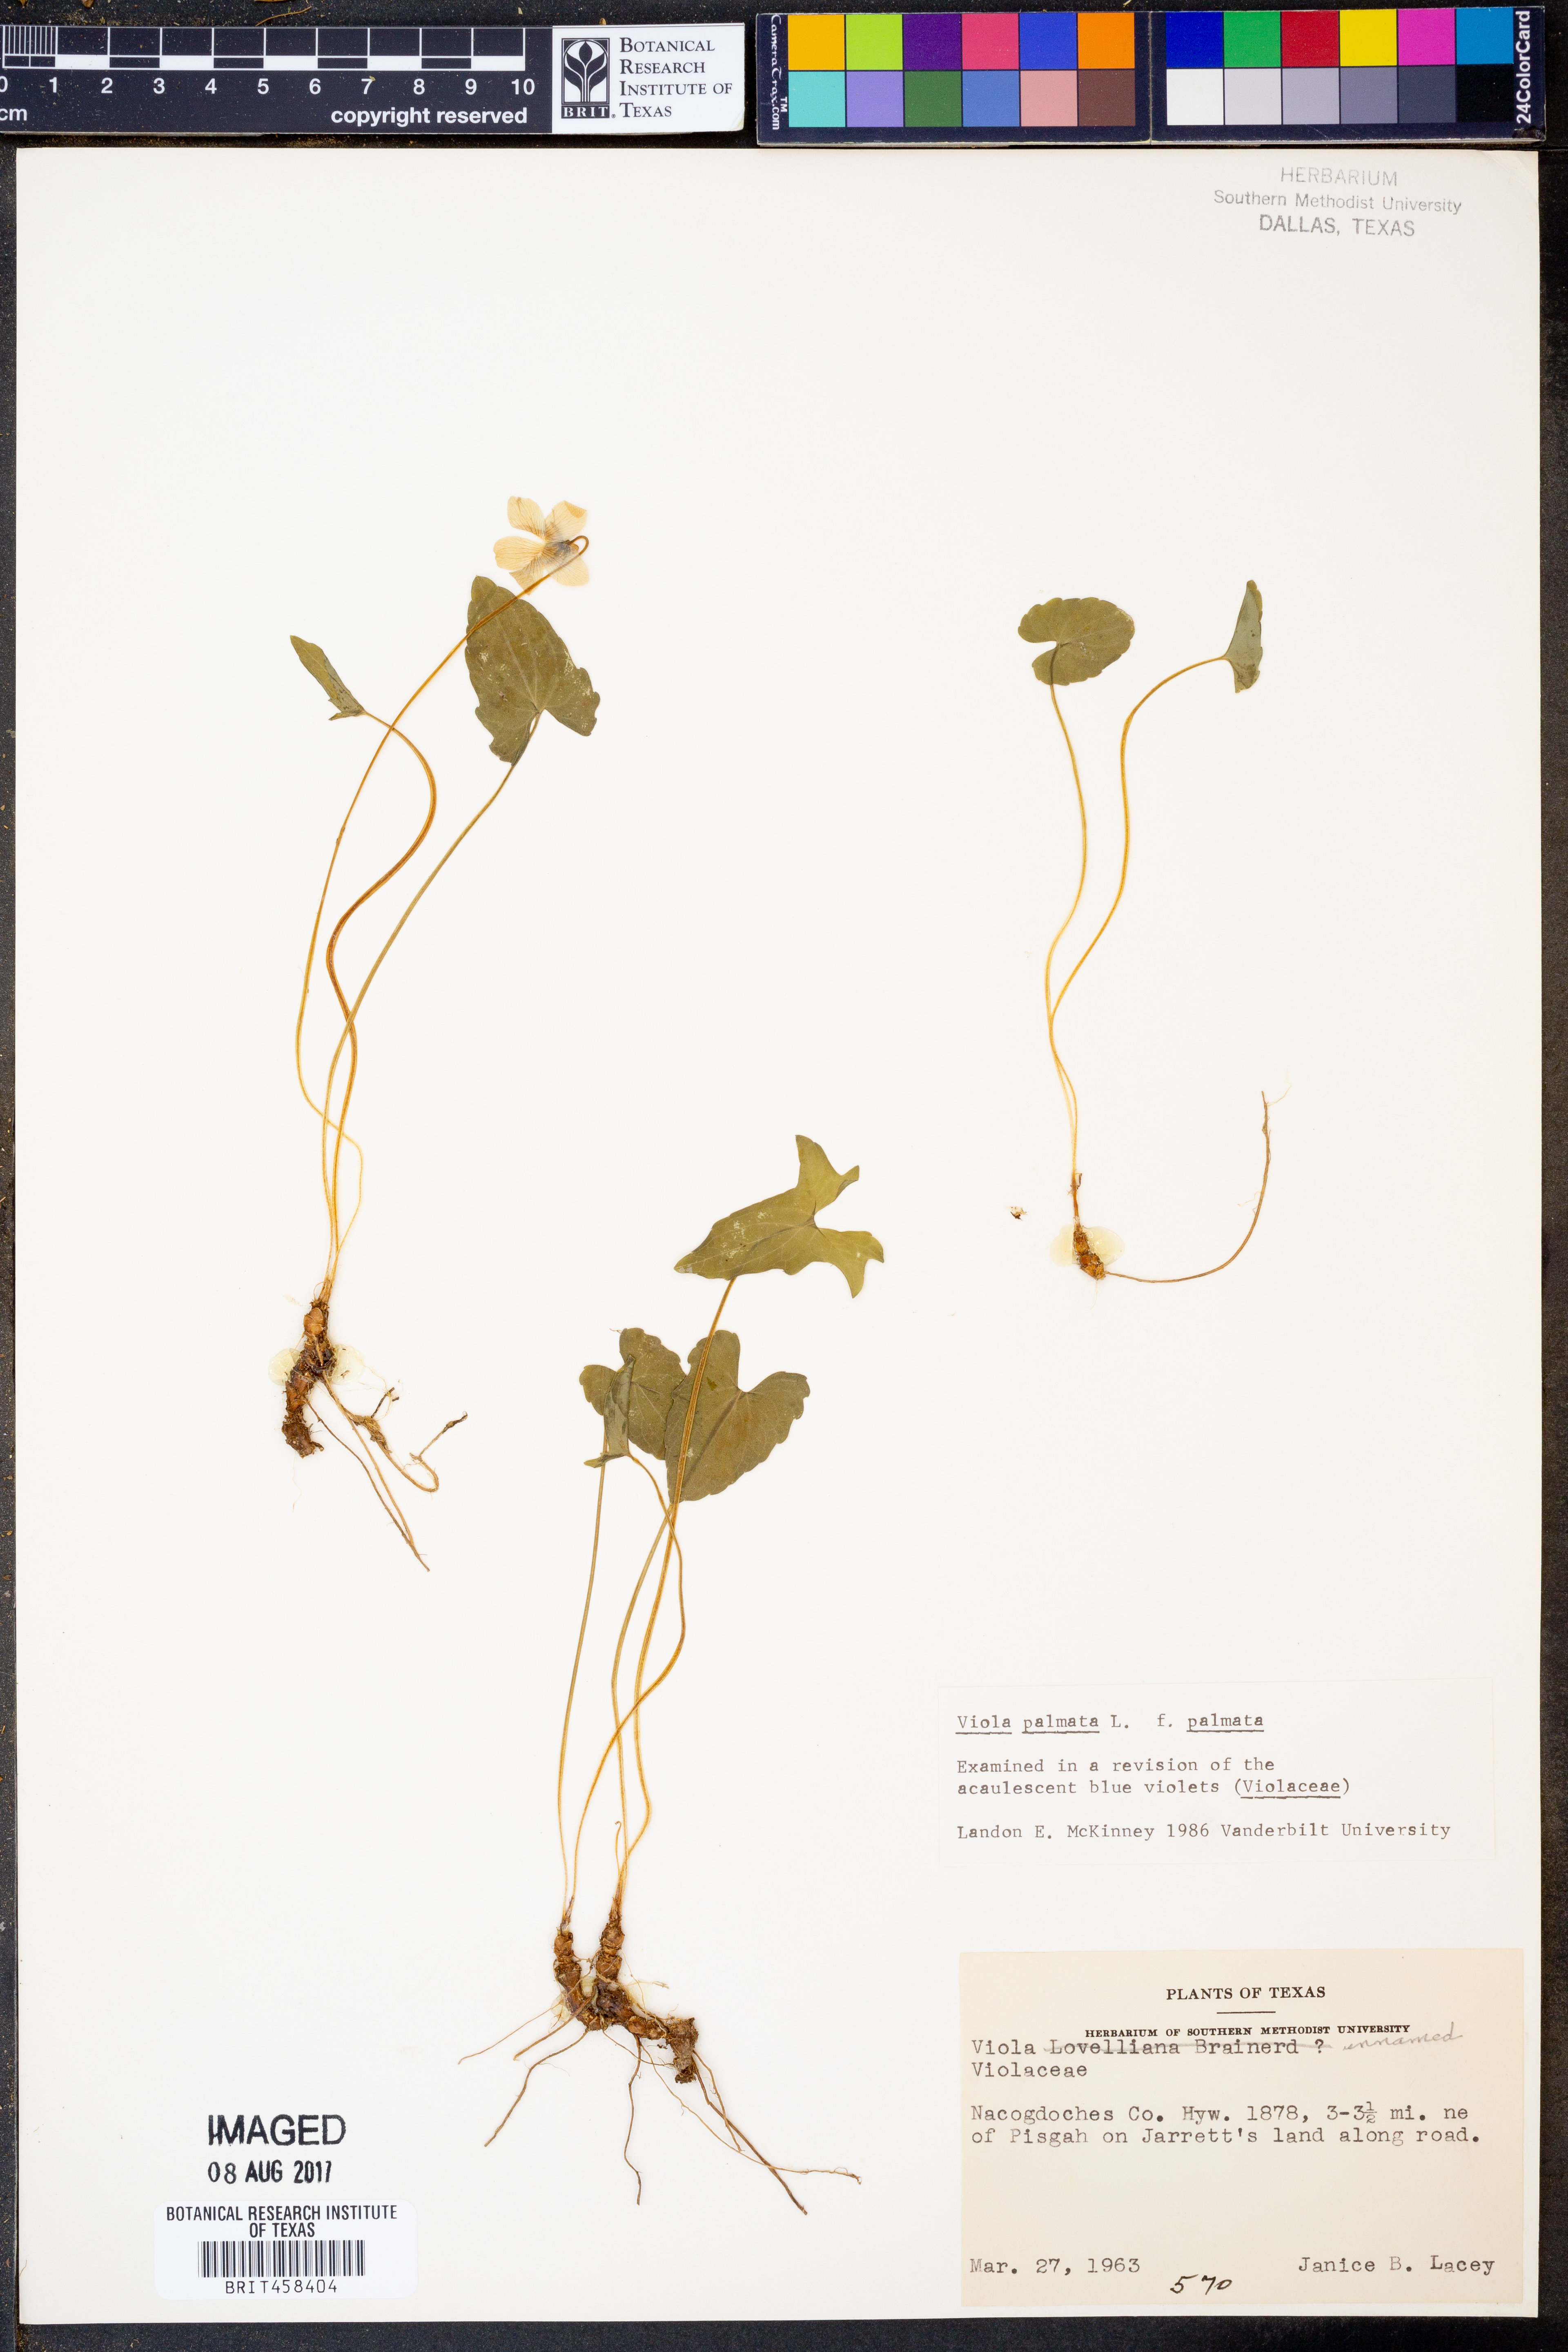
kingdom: Plantae
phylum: Tracheophyta
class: Magnoliopsida
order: Malpighiales
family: Violaceae
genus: Viola
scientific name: Viola palmata
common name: Early blue violet
